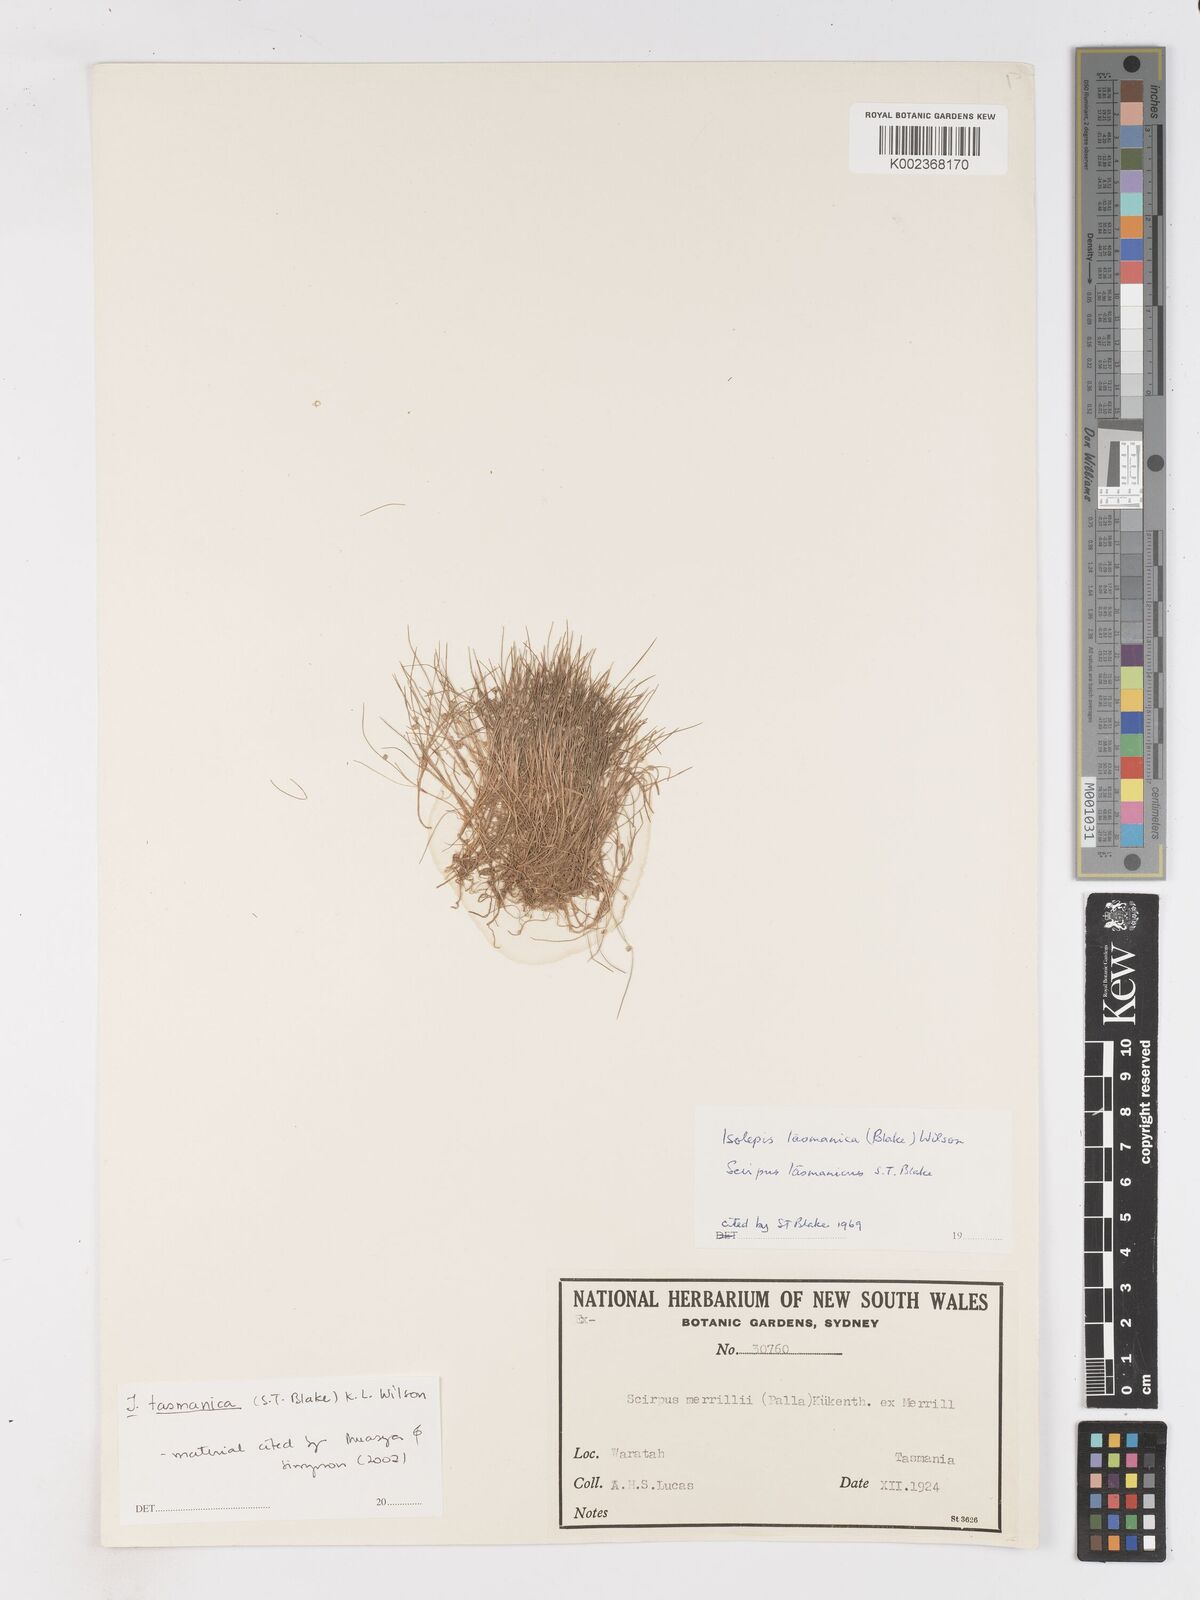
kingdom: Plantae
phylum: Tracheophyta
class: Liliopsida
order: Poales
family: Cyperaceae
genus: Isolepis
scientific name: Isolepis tasmanica
